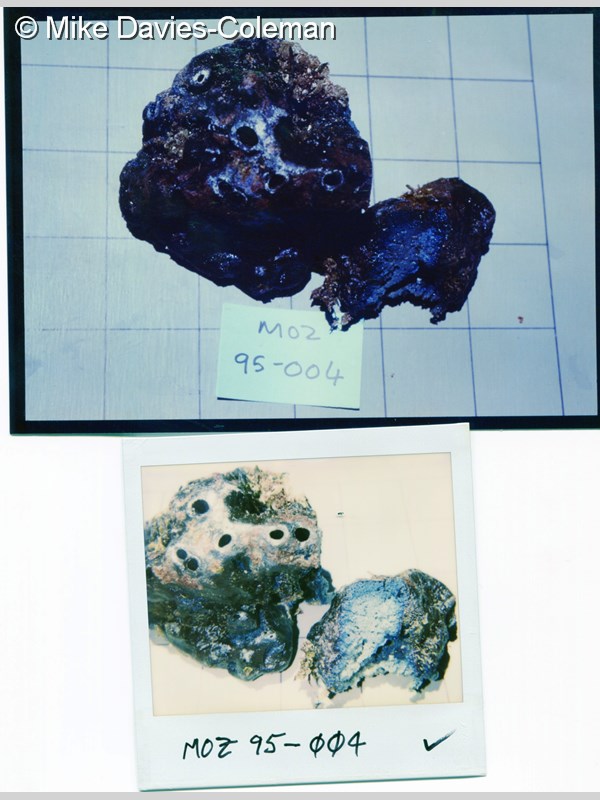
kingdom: Animalia
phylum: Porifera
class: Demospongiae
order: Tetractinellida
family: Theonellidae
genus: Theonella
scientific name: Theonella conica
